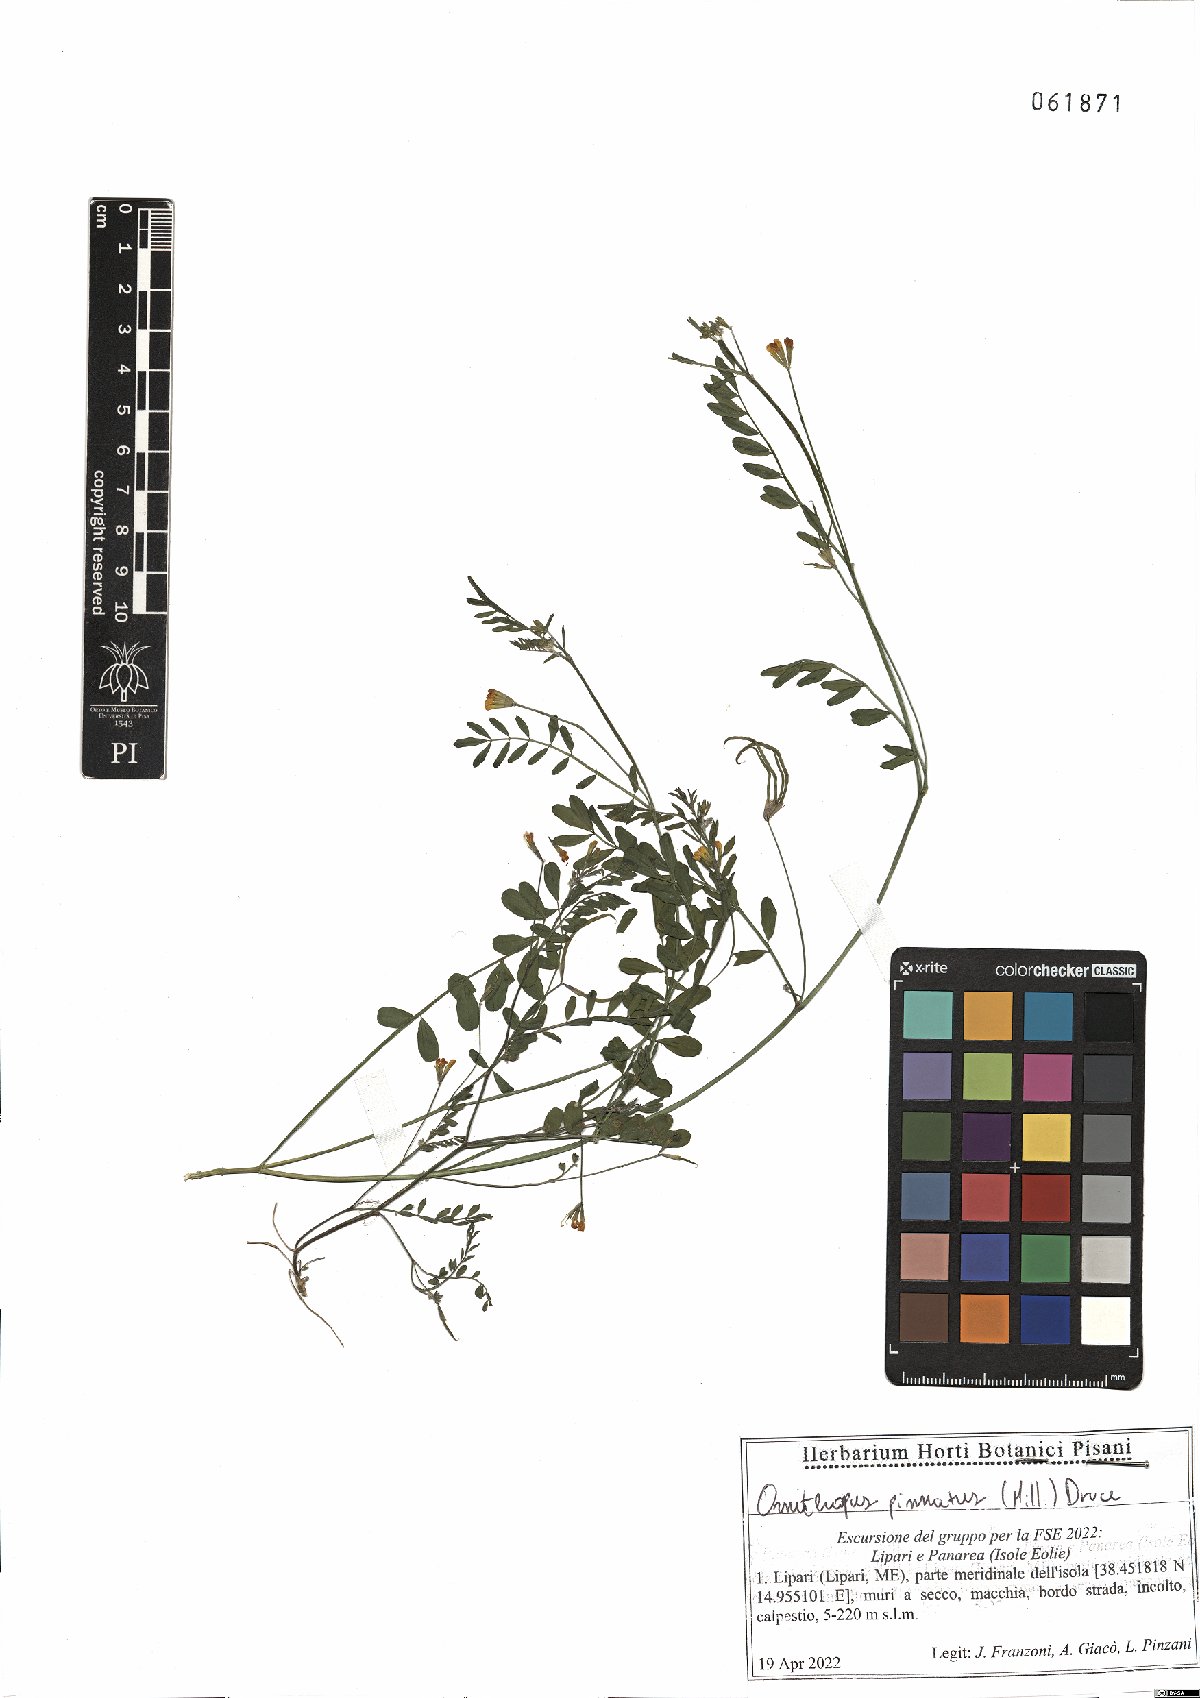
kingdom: Plantae
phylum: Tracheophyta
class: Magnoliopsida
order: Fabales
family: Fabaceae
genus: Ornithopus
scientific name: Ornithopus pinnatus
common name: Orange bird's-foot
